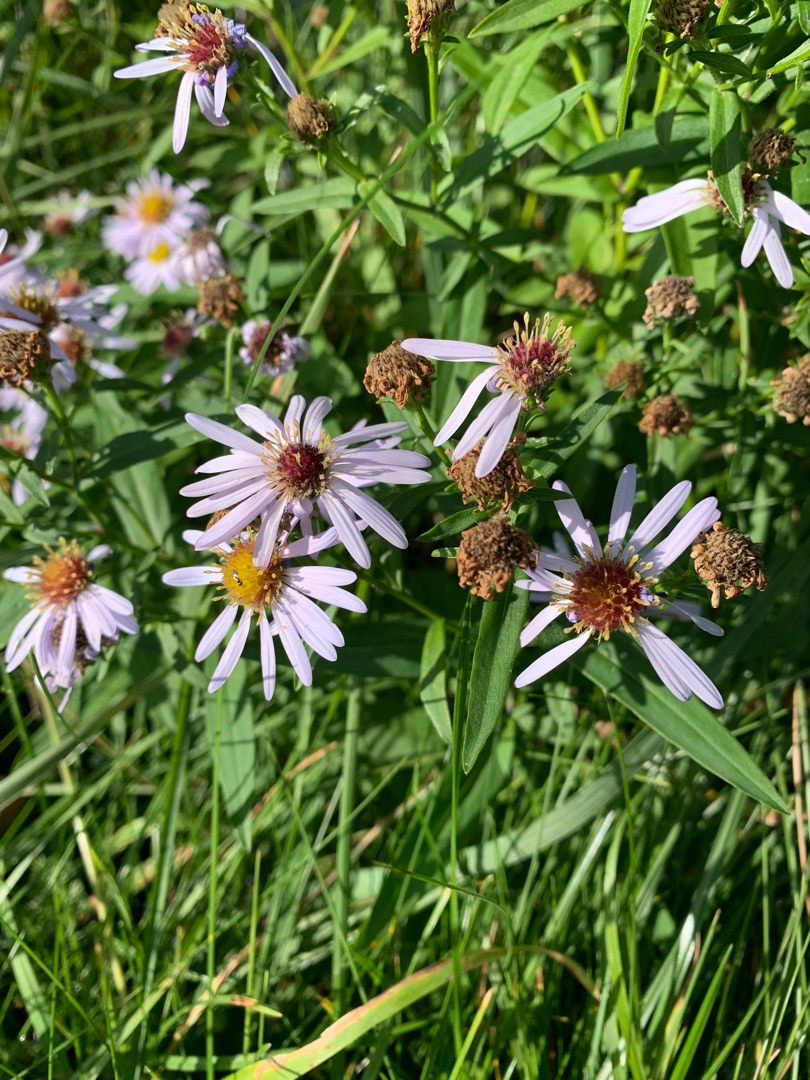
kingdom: Plantae
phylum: Tracheophyta
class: Magnoliopsida
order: Asterales
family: Asteraceae
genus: Tripolium
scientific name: Tripolium pannonicum
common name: Strandasters
